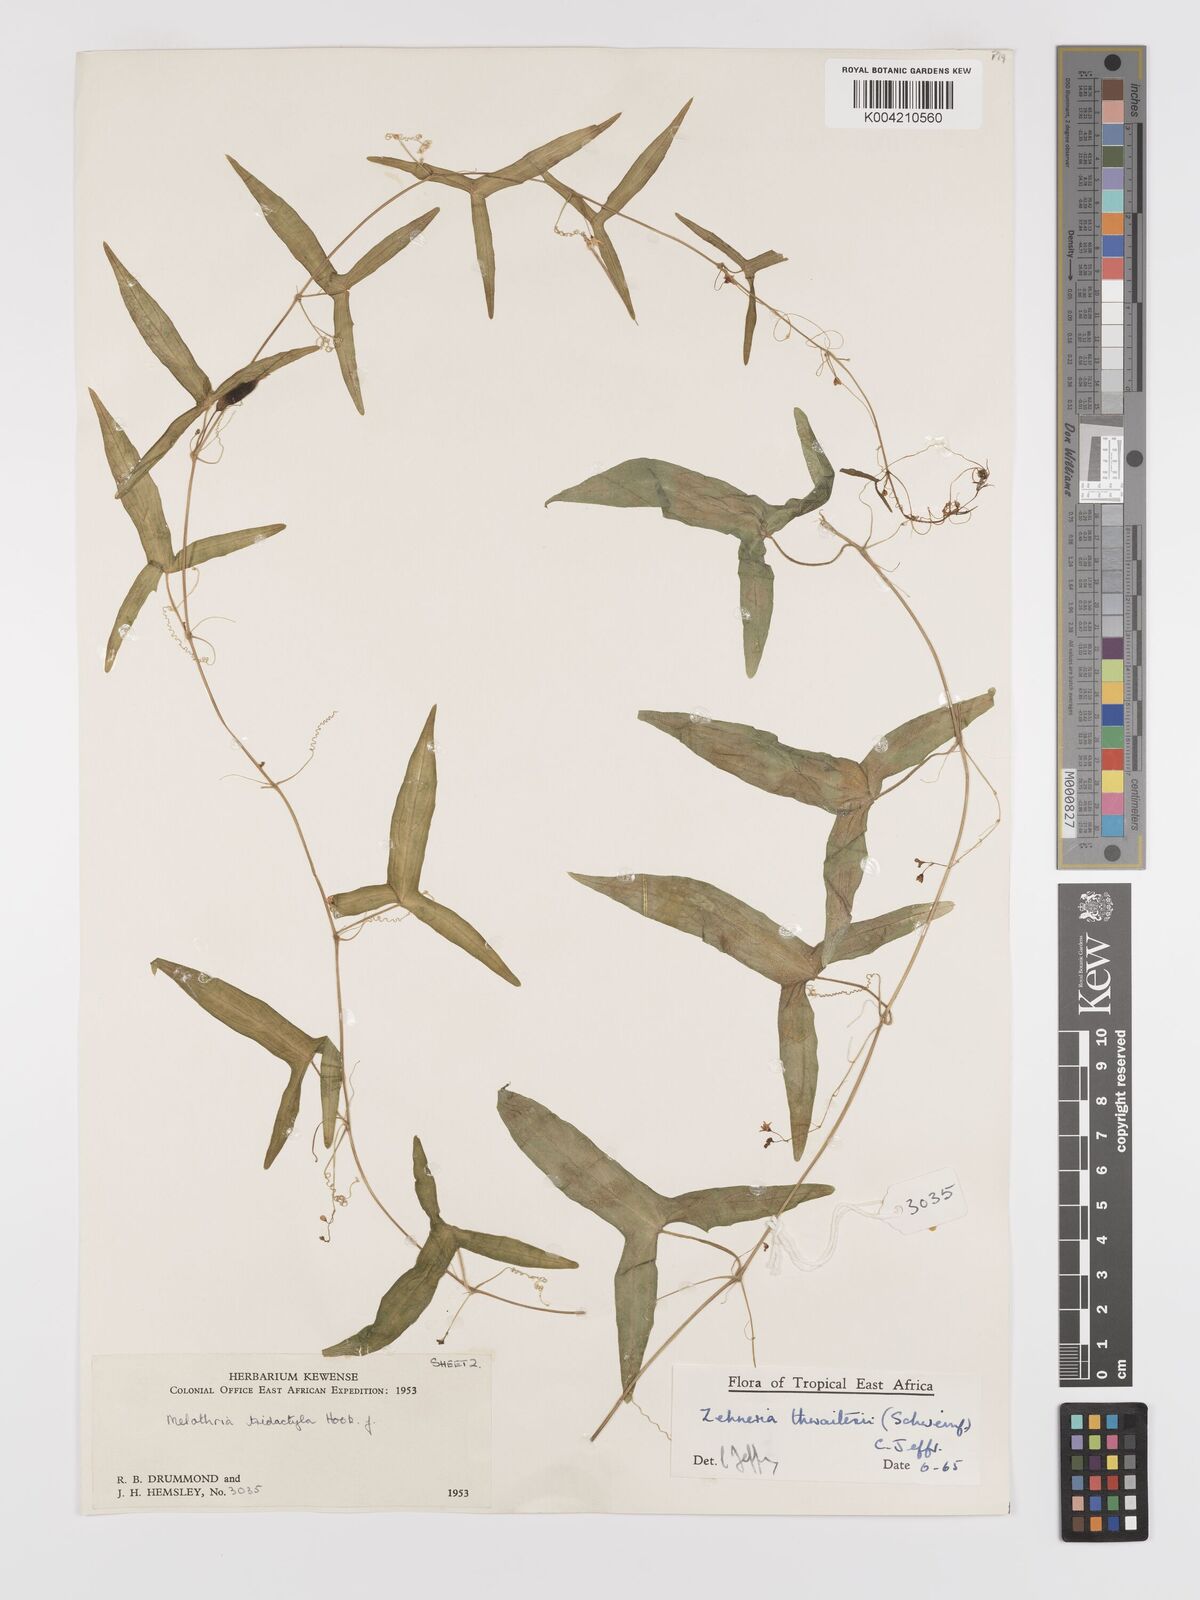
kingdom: Plantae
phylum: Tracheophyta
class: Magnoliopsida
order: Cucurbitales
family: Cucurbitaceae
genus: Zehneria
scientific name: Zehneria thwaitesii
